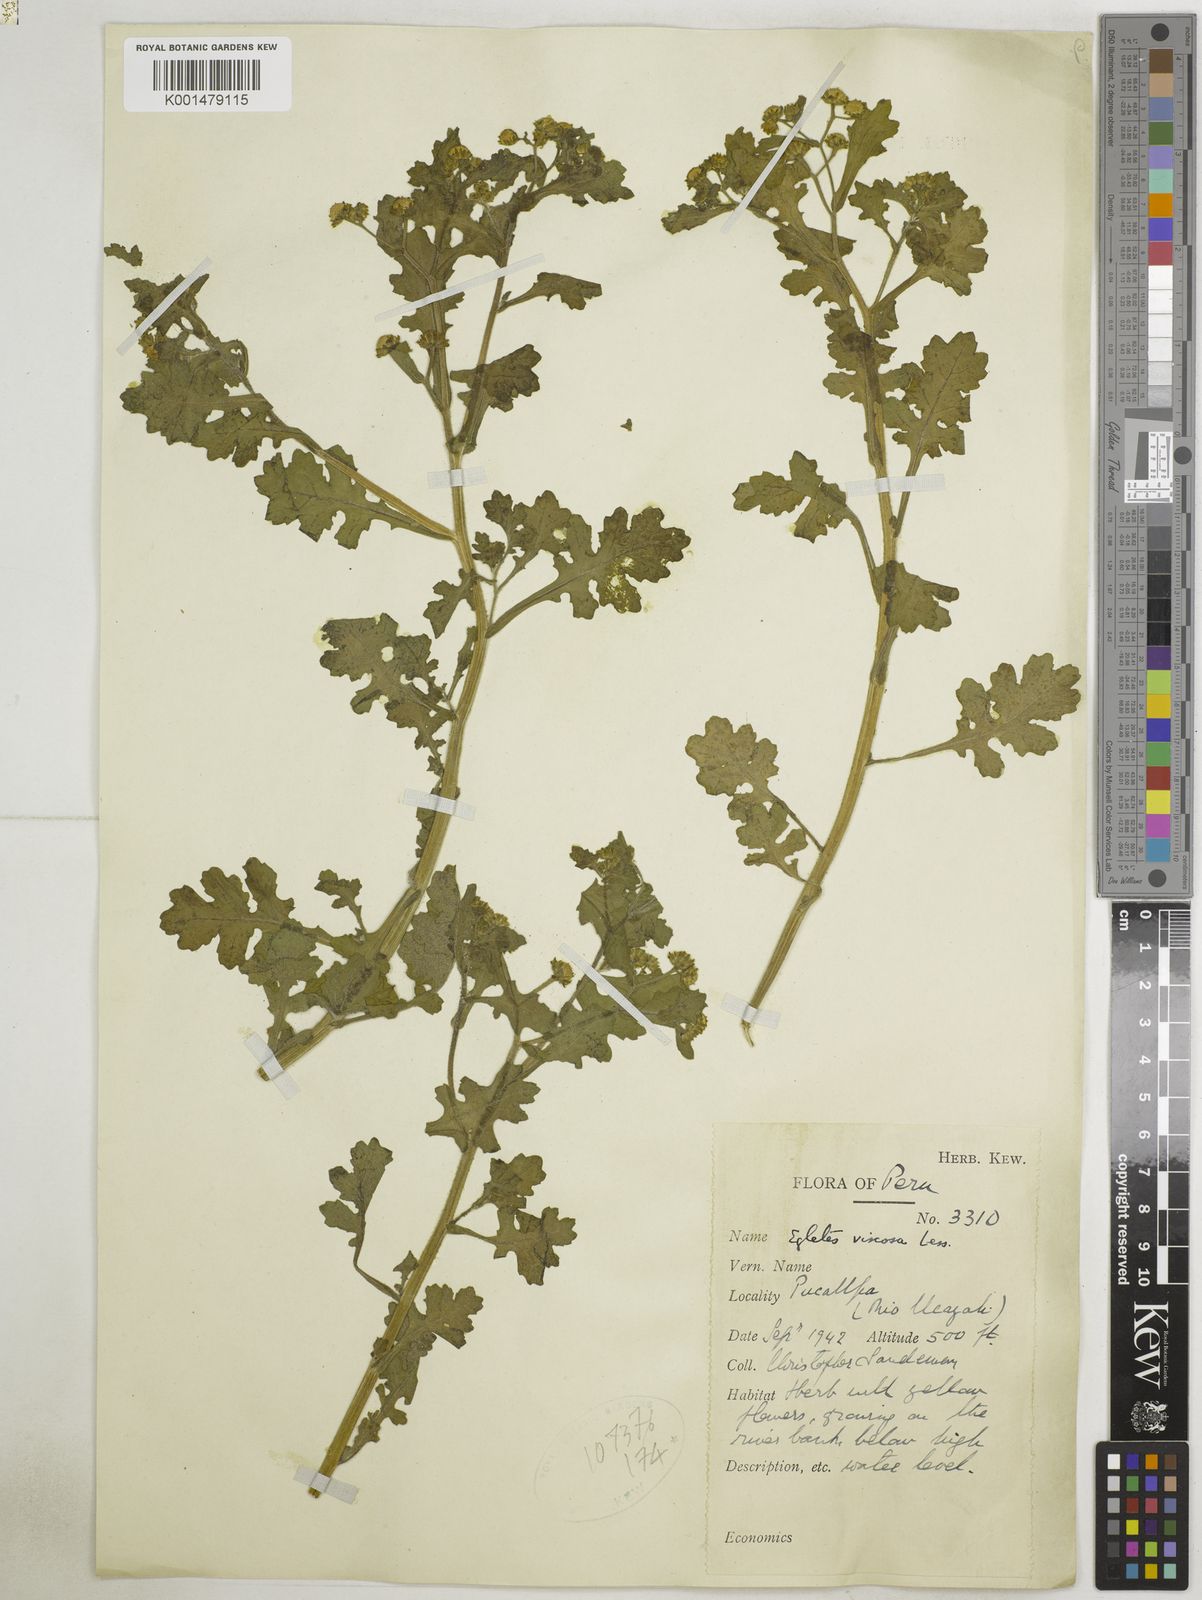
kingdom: Plantae
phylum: Tracheophyta
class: Magnoliopsida
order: Asterales
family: Asteraceae
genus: Egletes
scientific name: Egletes viscosa
